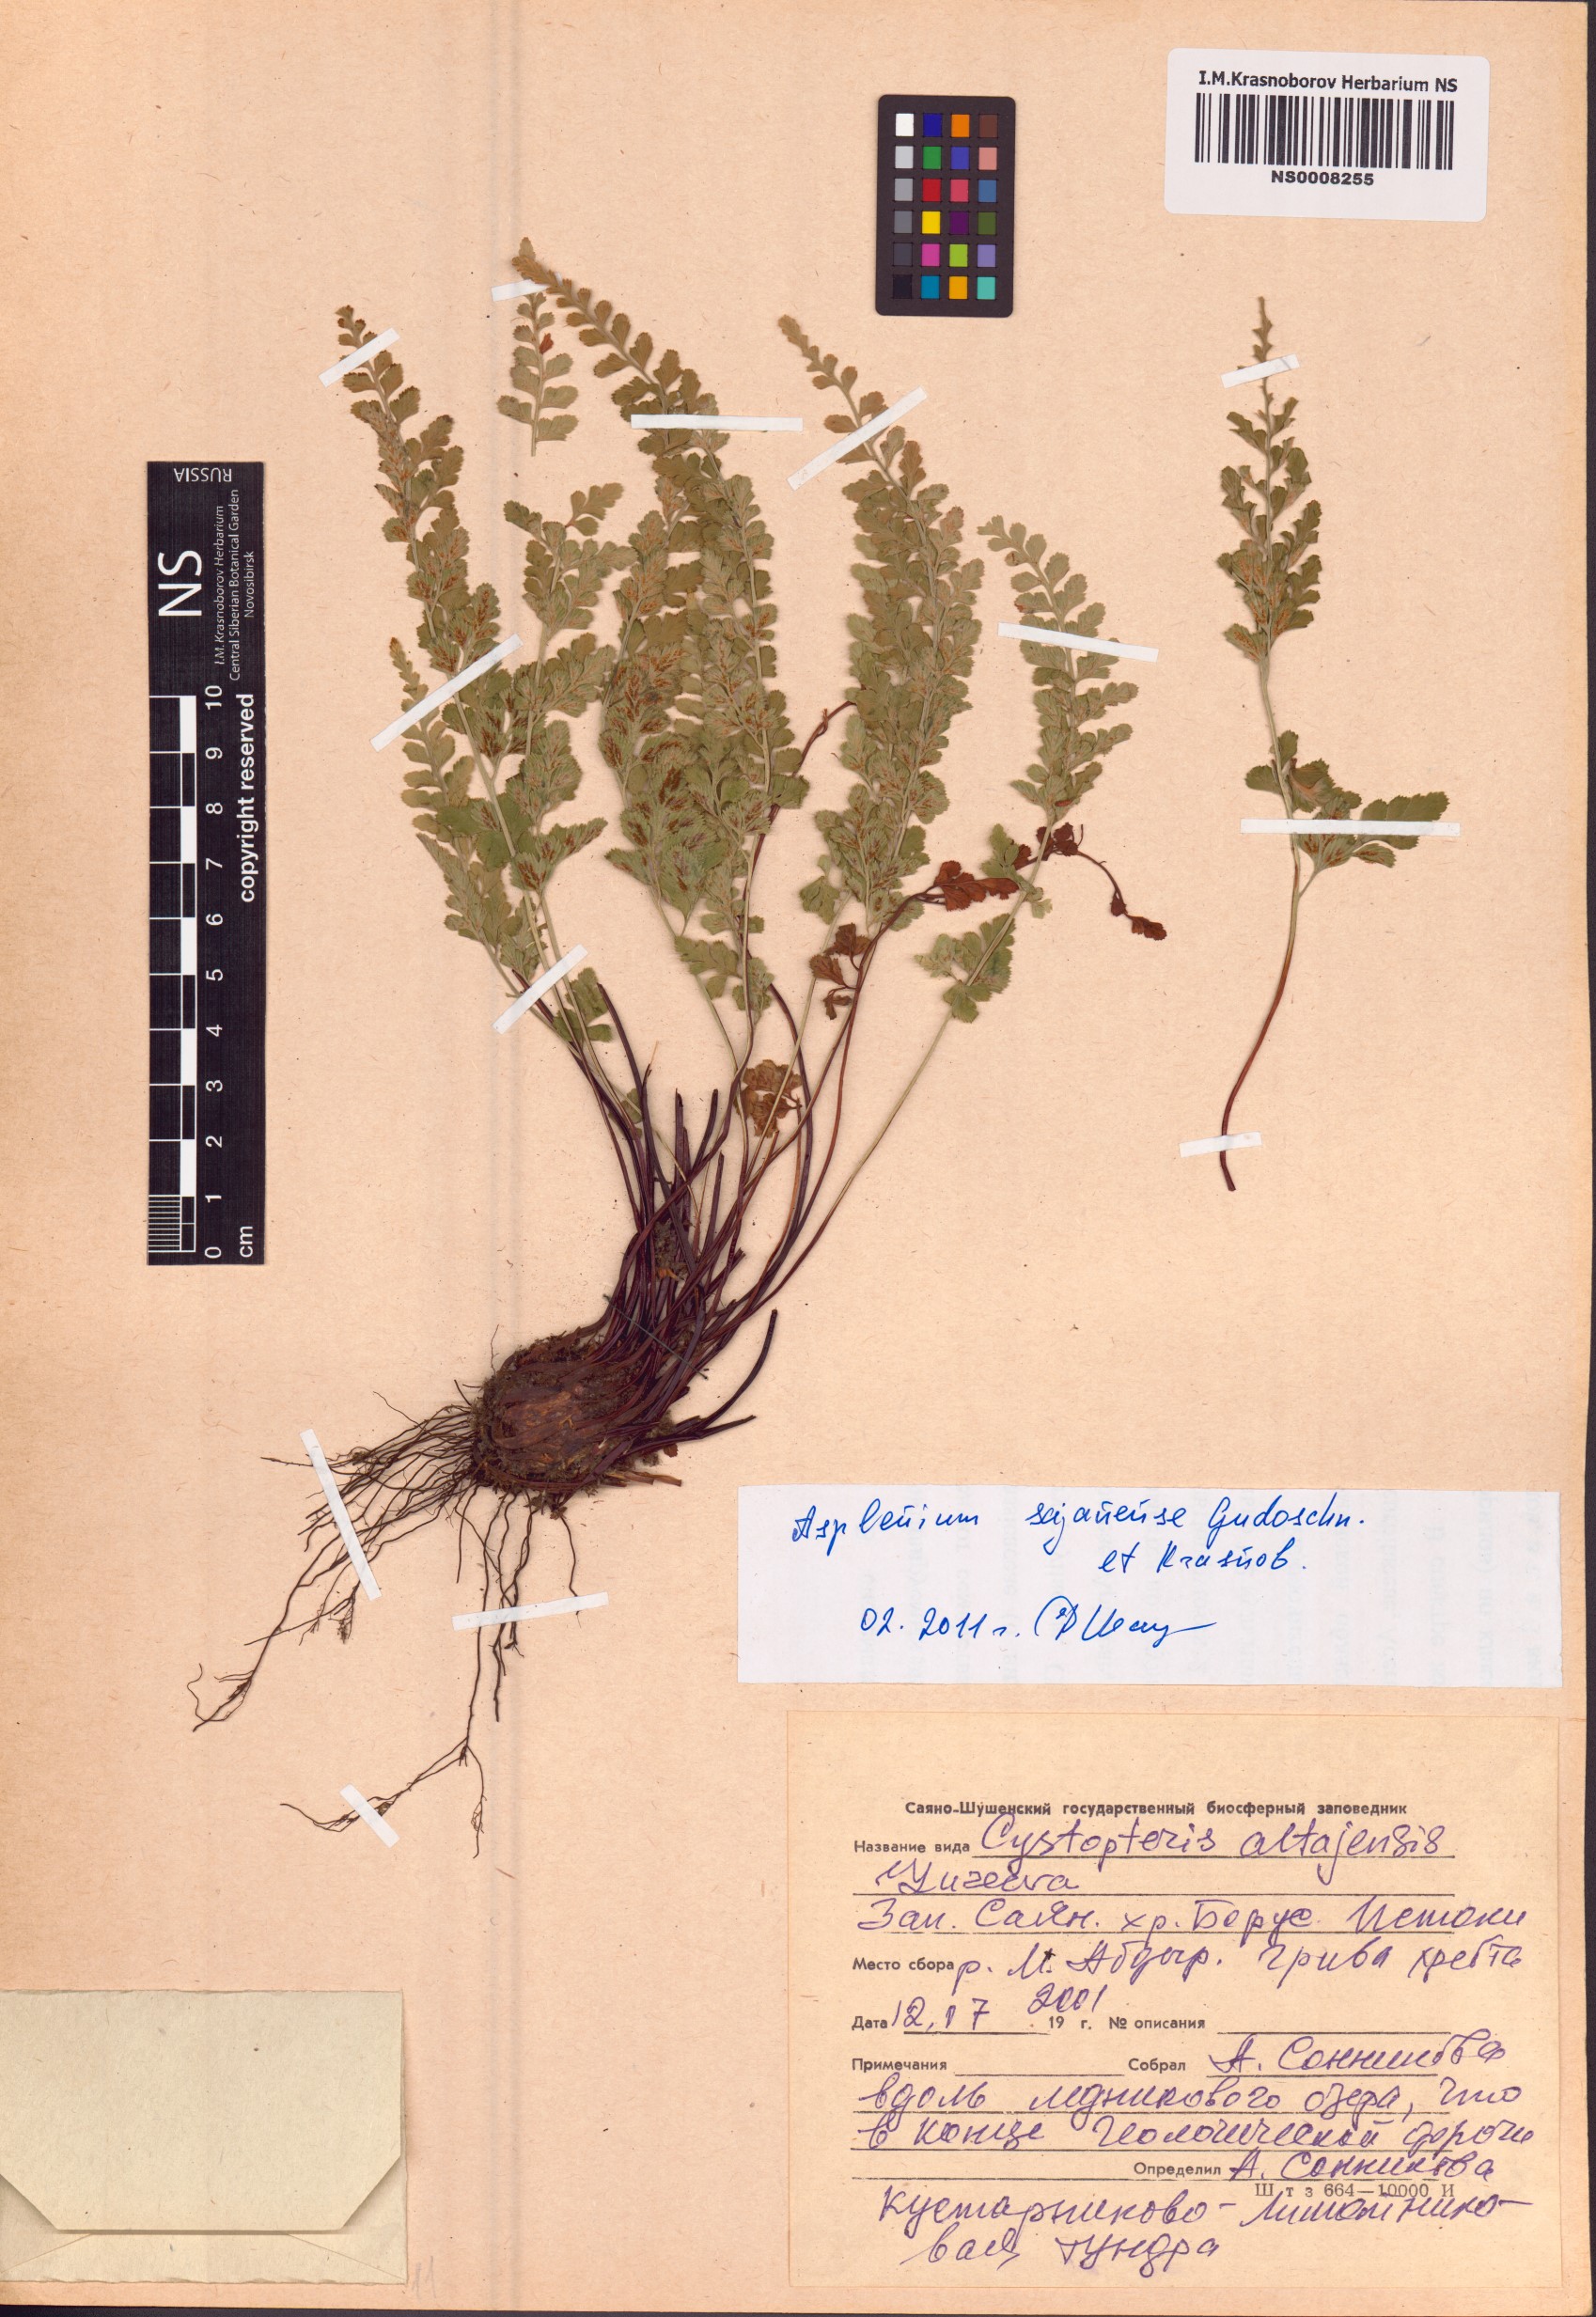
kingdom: Plantae
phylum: Tracheophyta
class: Polypodiopsida
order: Polypodiales
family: Aspleniaceae
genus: Asplenium
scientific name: Asplenium adiantum-nigrum
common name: Black spleenwort
